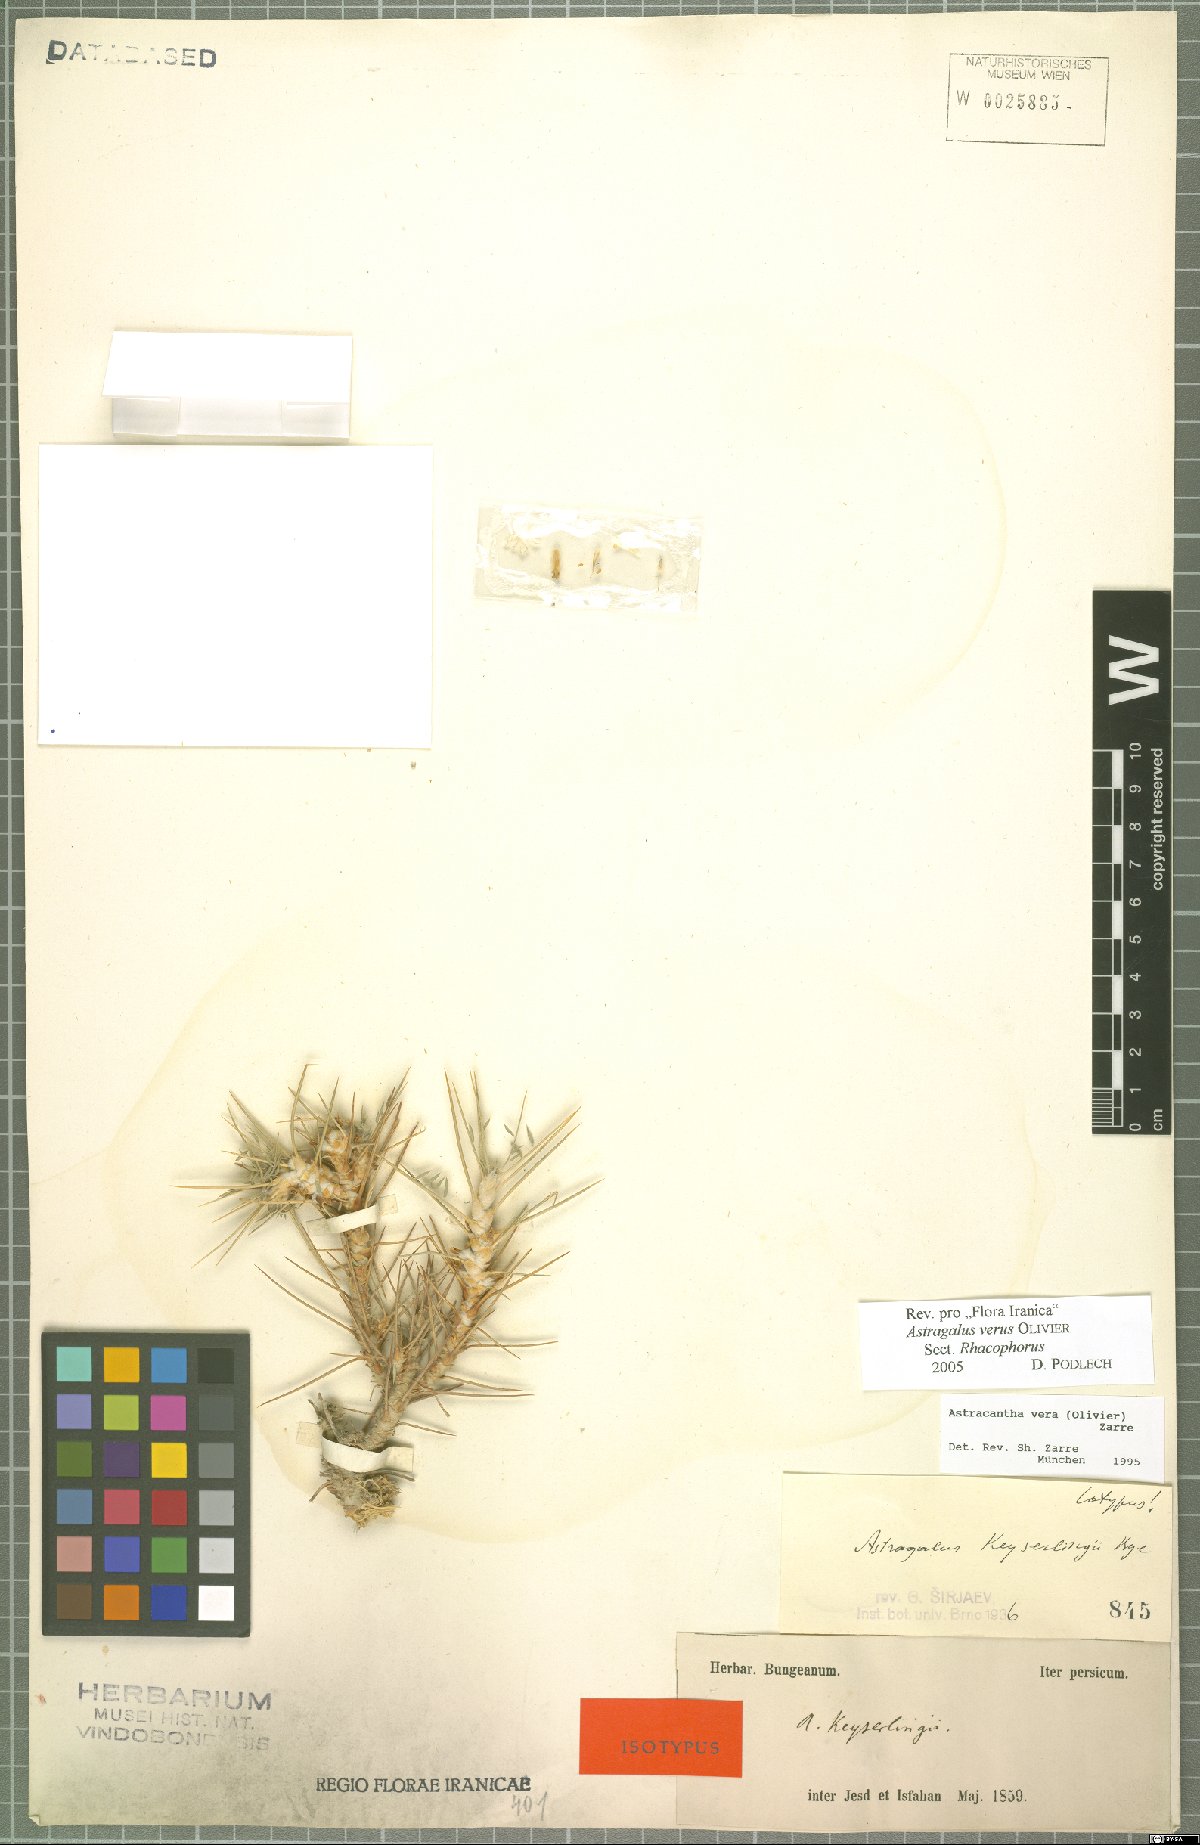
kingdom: Plantae
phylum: Tracheophyta
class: Magnoliopsida
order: Fabales
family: Fabaceae
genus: Astragalus
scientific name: Astragalus verus
